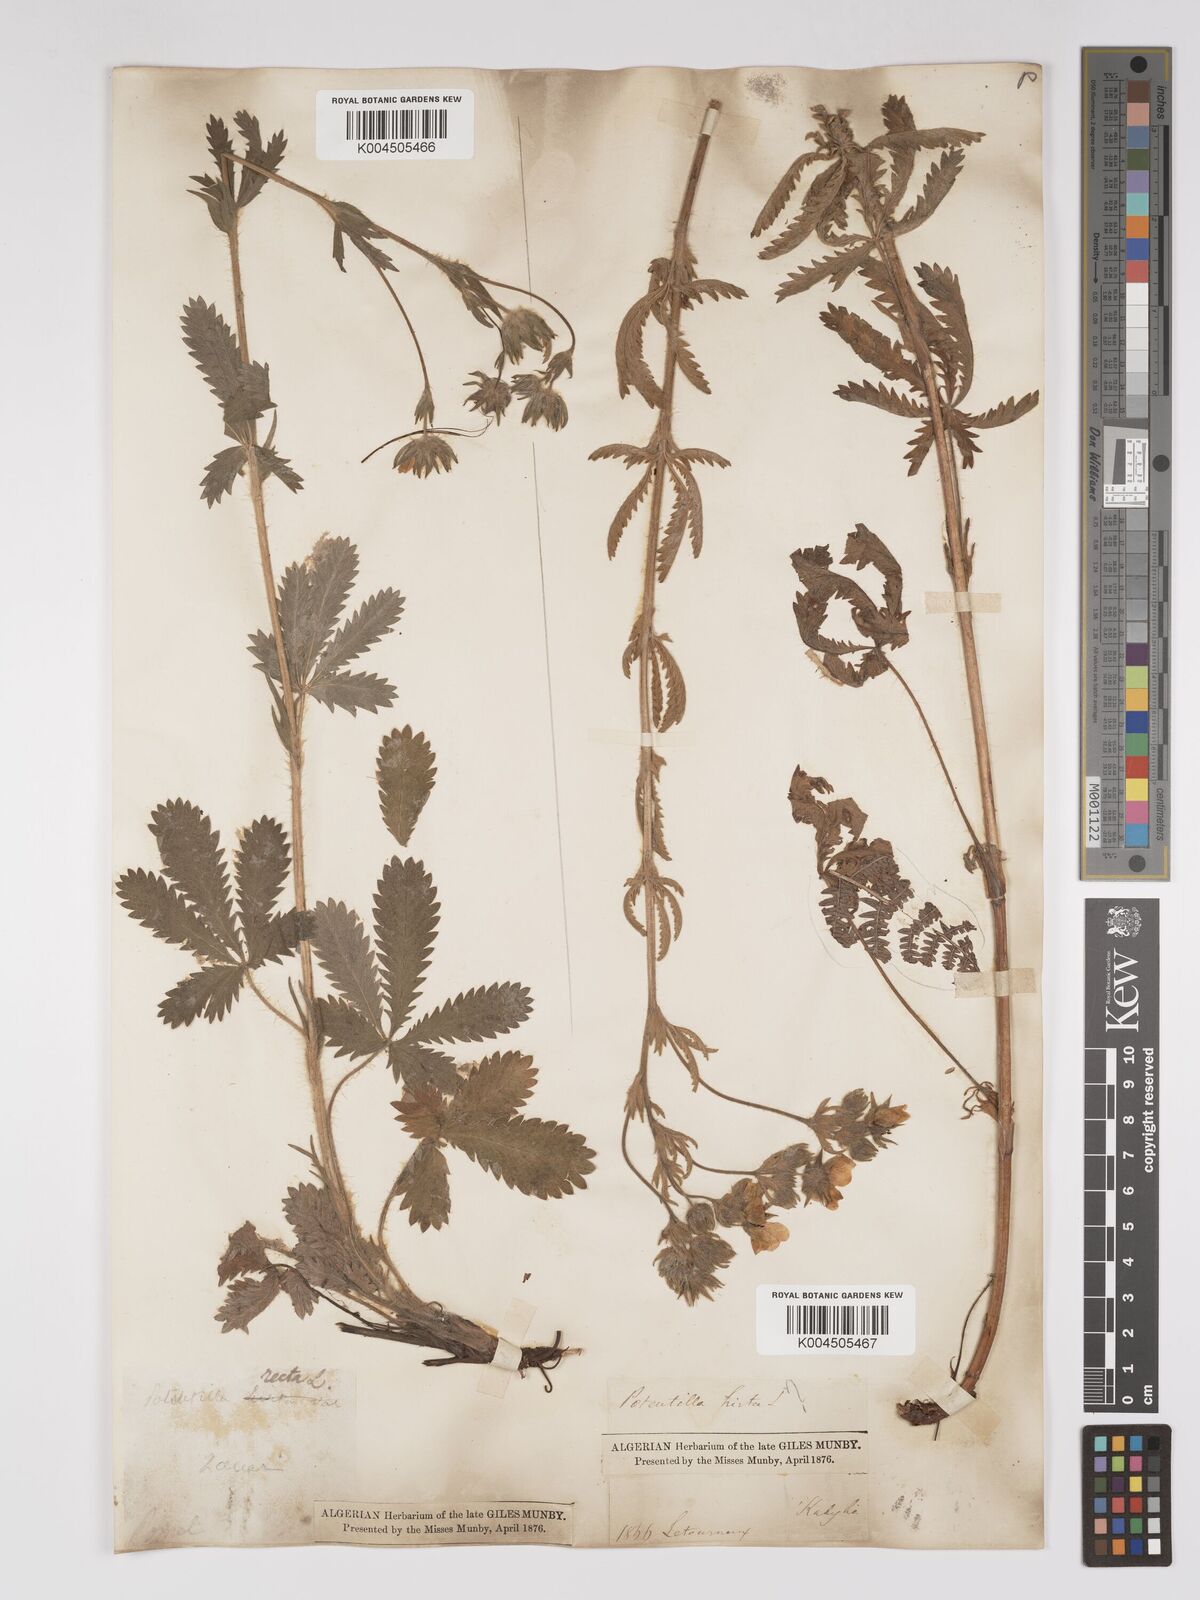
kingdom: Plantae
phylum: Tracheophyta
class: Magnoliopsida
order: Rosales
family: Rosaceae
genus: Potentilla
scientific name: Potentilla hirta
